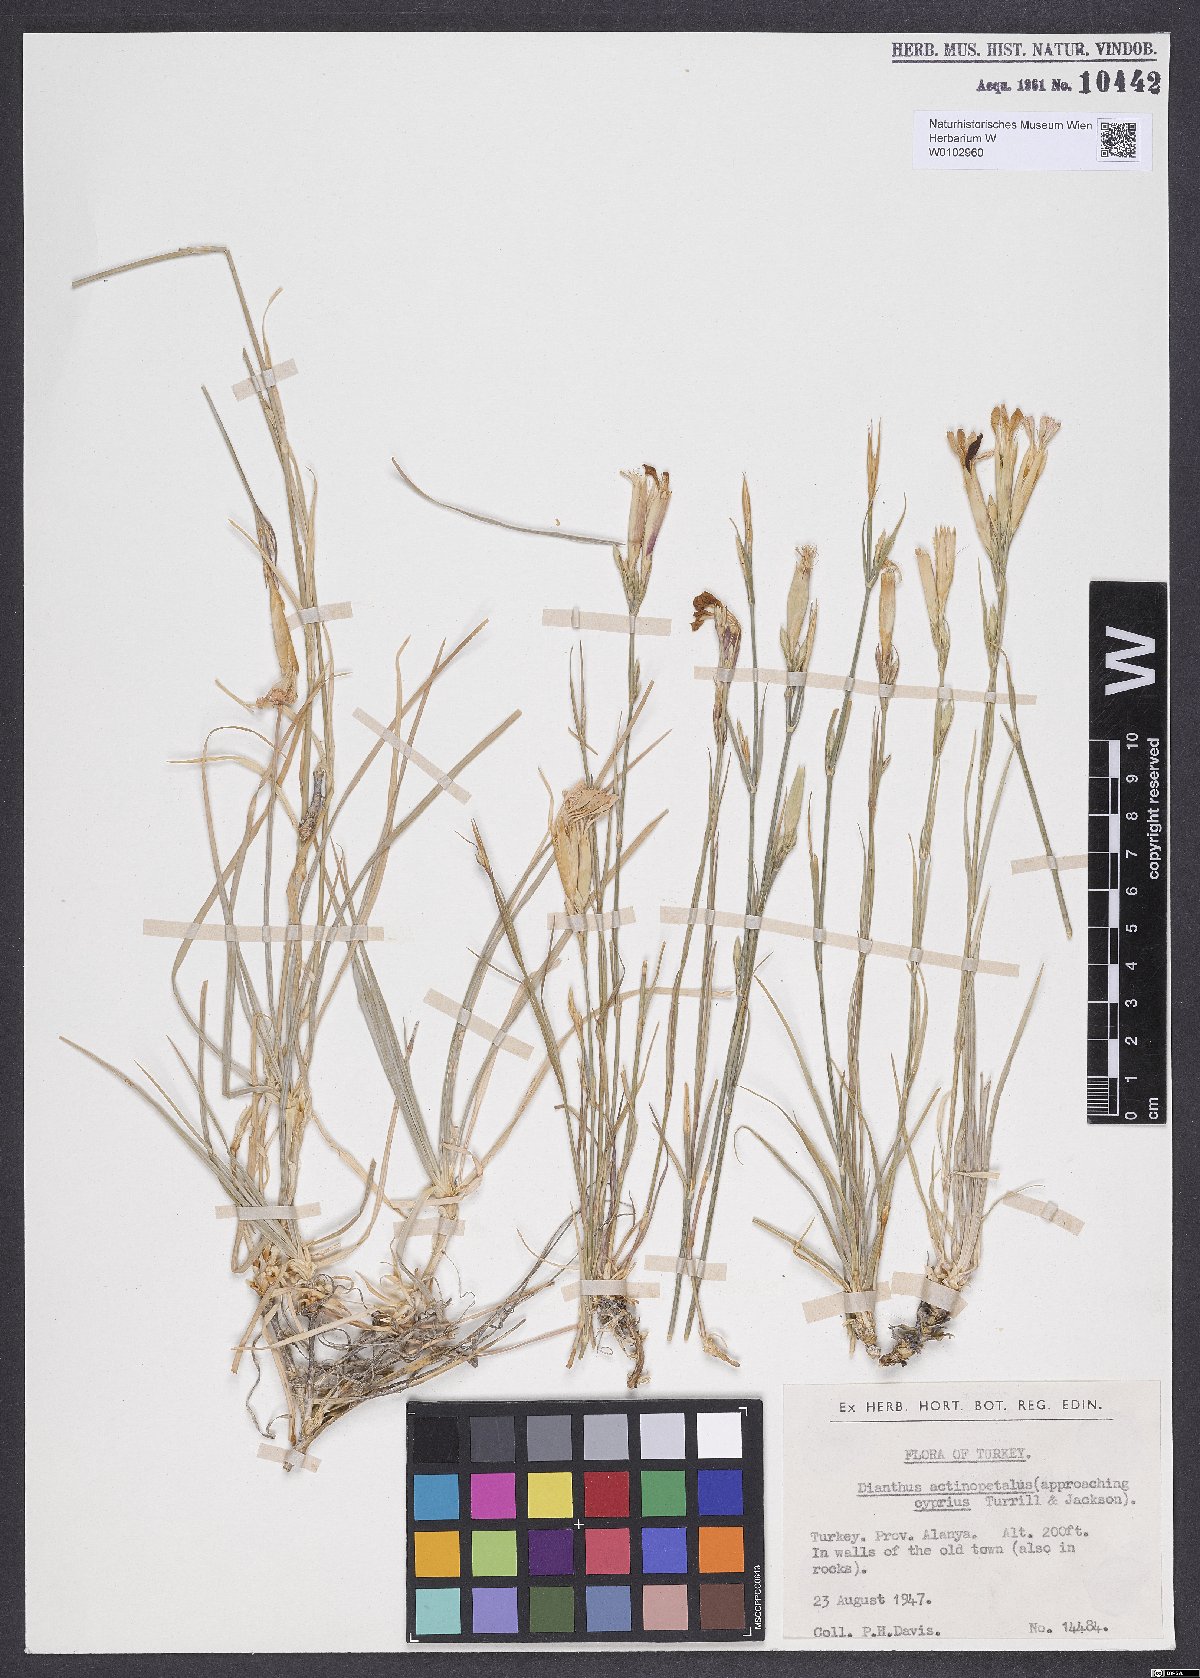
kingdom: Plantae
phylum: Tracheophyta
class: Magnoliopsida
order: Caryophyllales
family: Caryophyllaceae
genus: Dianthus
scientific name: Dianthus elegans
